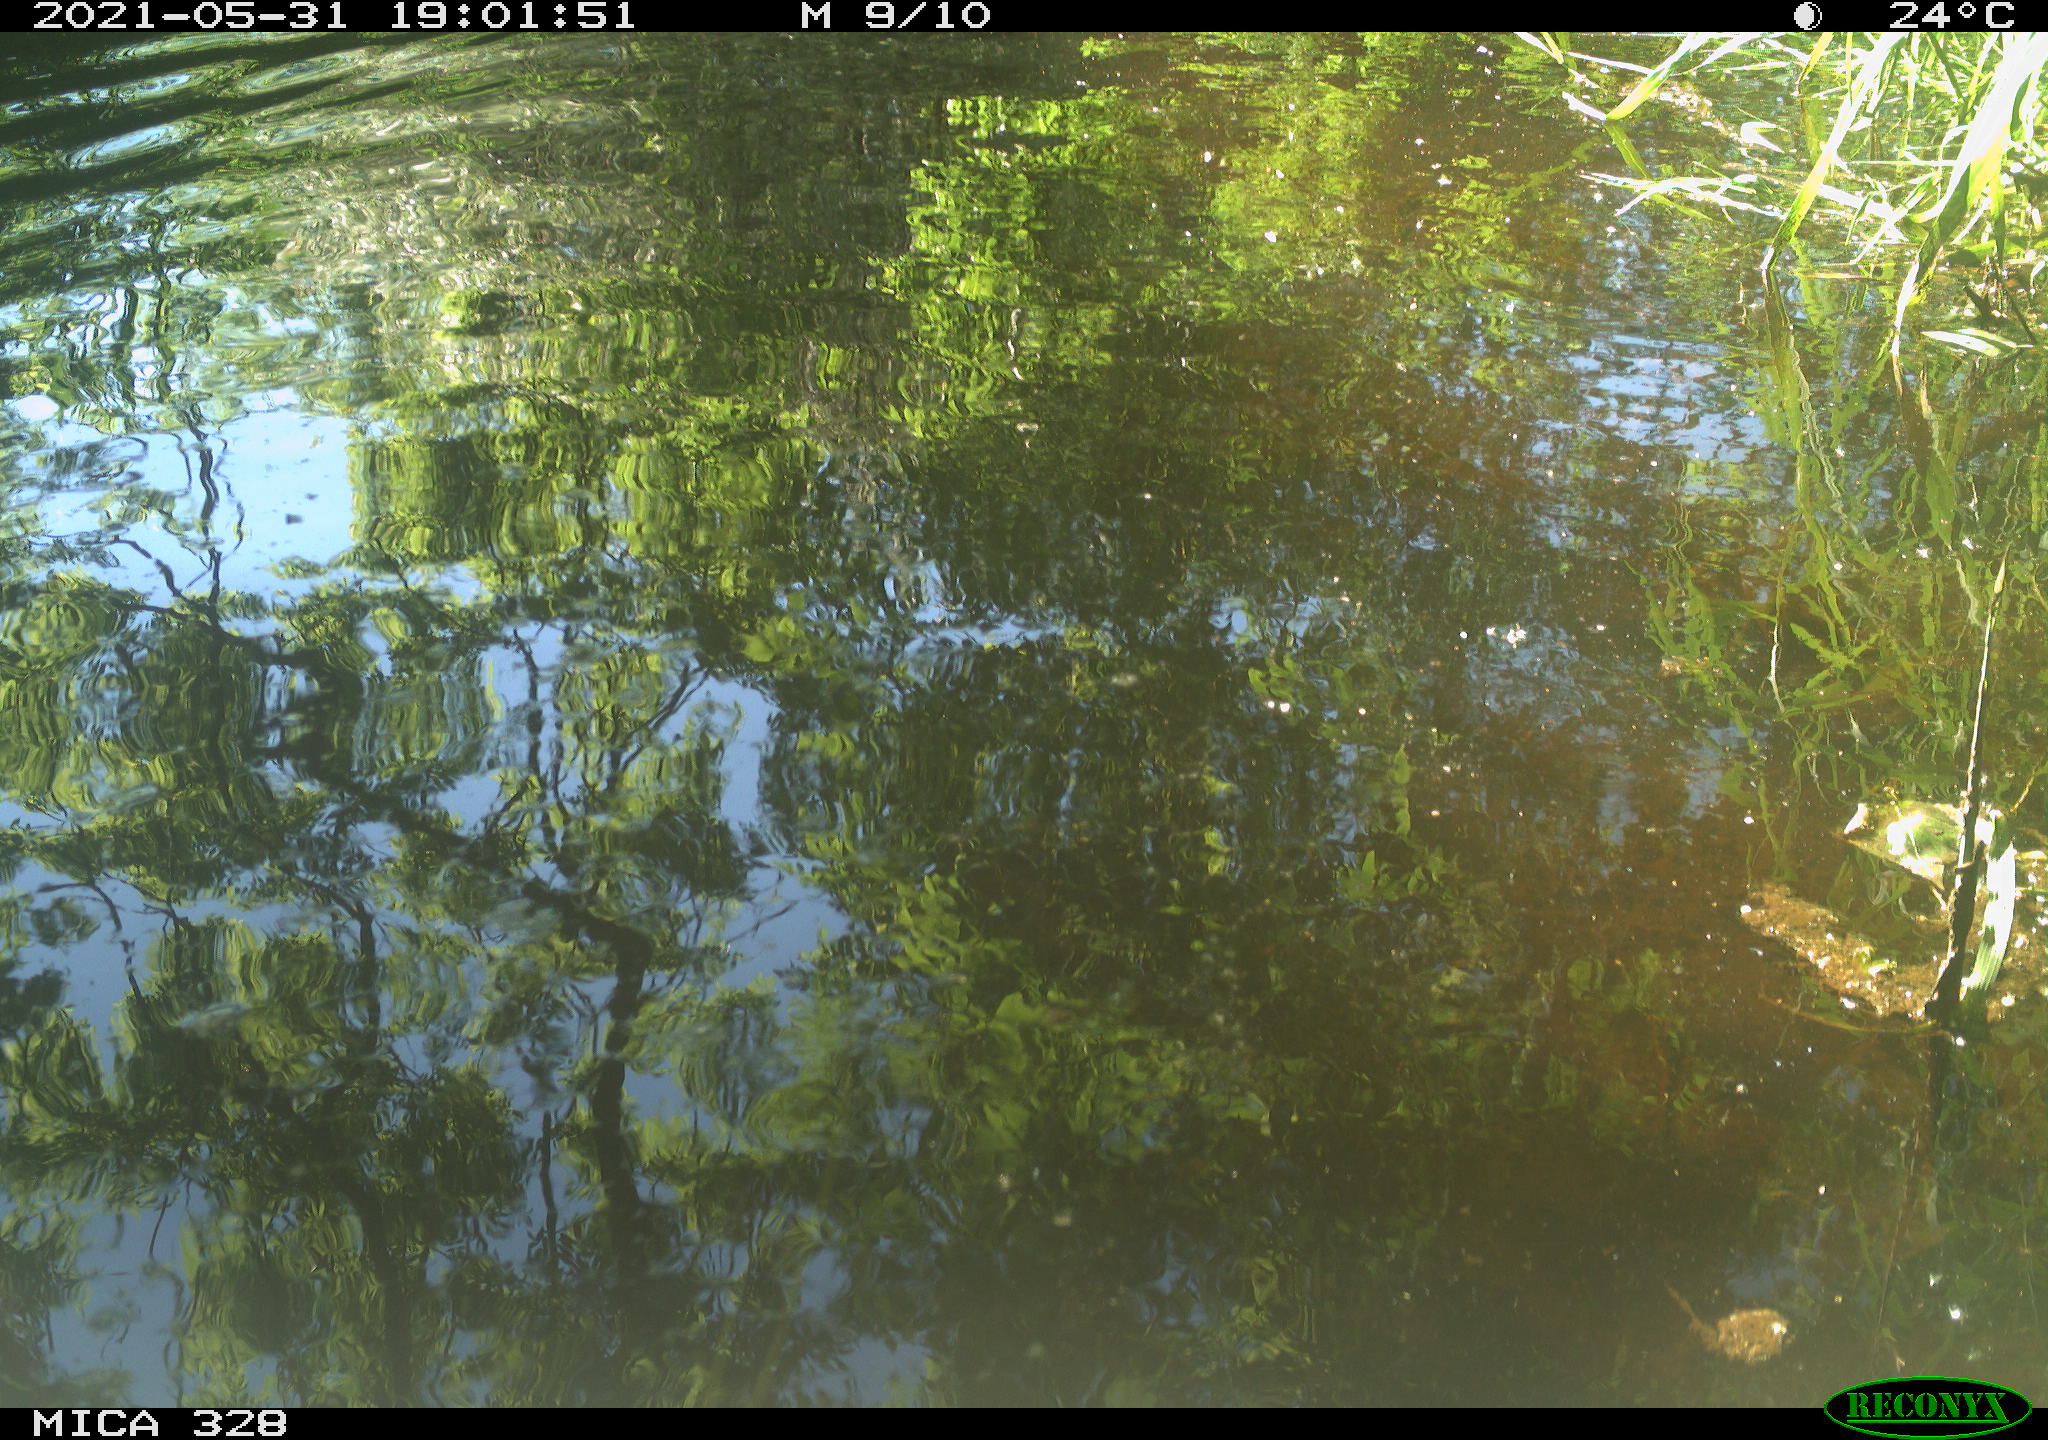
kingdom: Animalia
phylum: Chordata
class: Mammalia
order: Rodentia
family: Cricetidae
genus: Ondatra
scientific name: Ondatra zibethicus
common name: Muskrat
